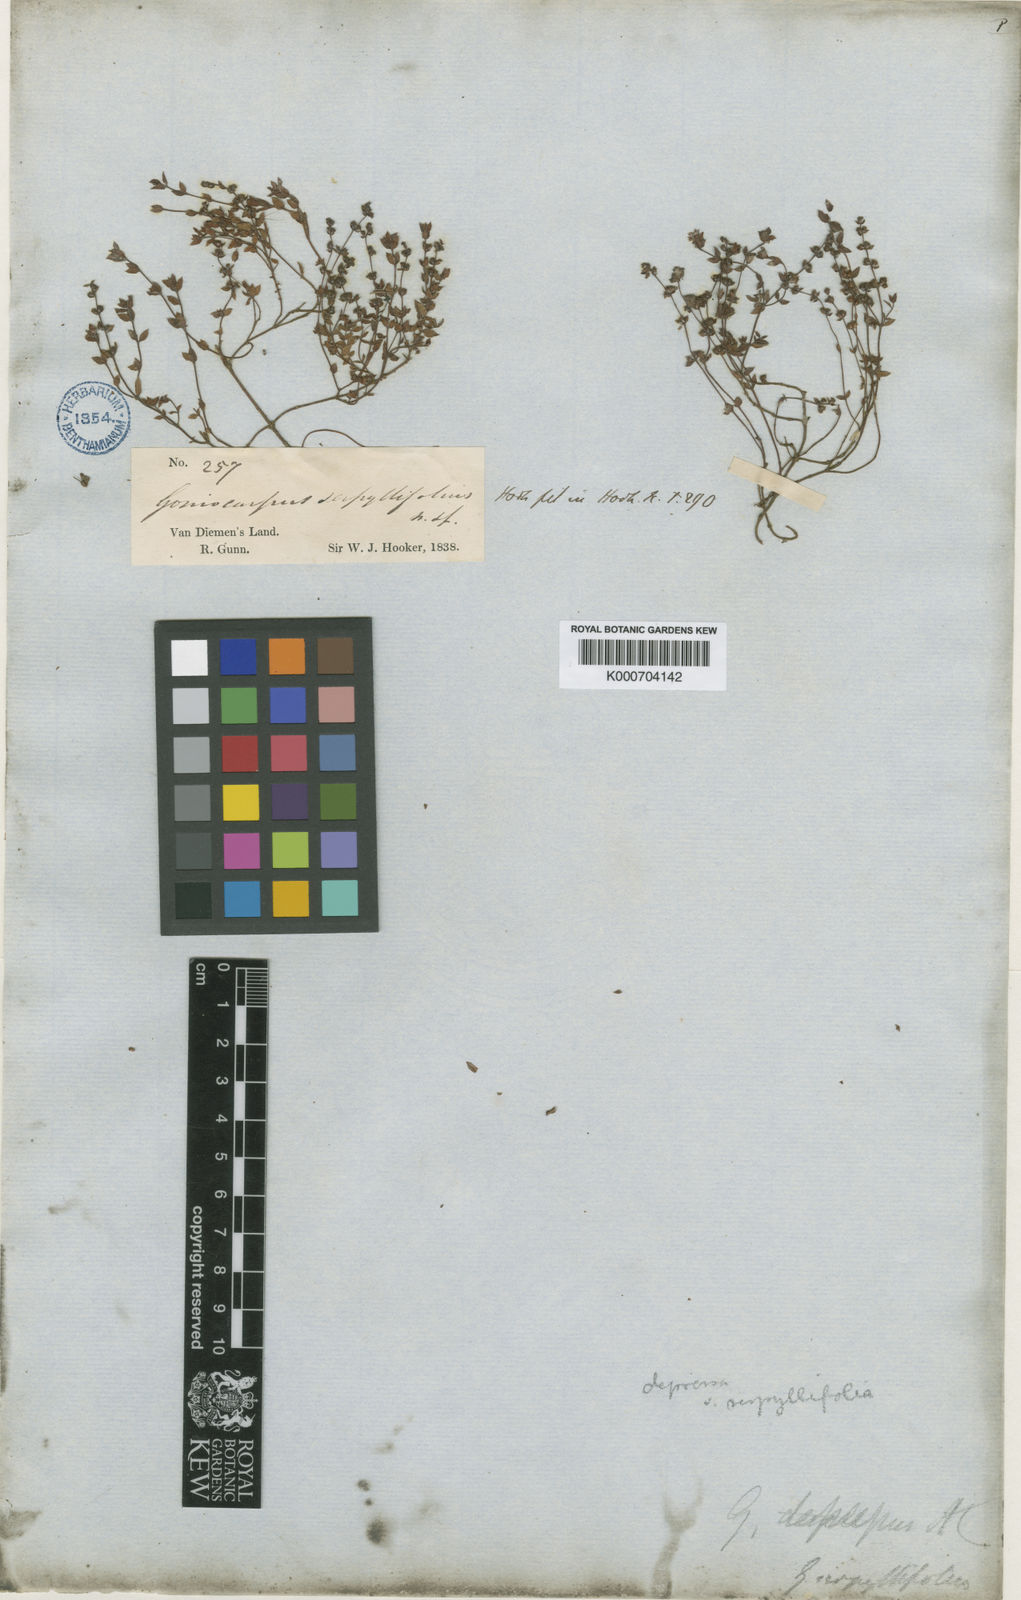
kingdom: Plantae
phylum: Tracheophyta
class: Magnoliopsida
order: Saxifragales
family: Haloragaceae
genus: Gonocarpus
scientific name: Gonocarpus serpyllifolius
